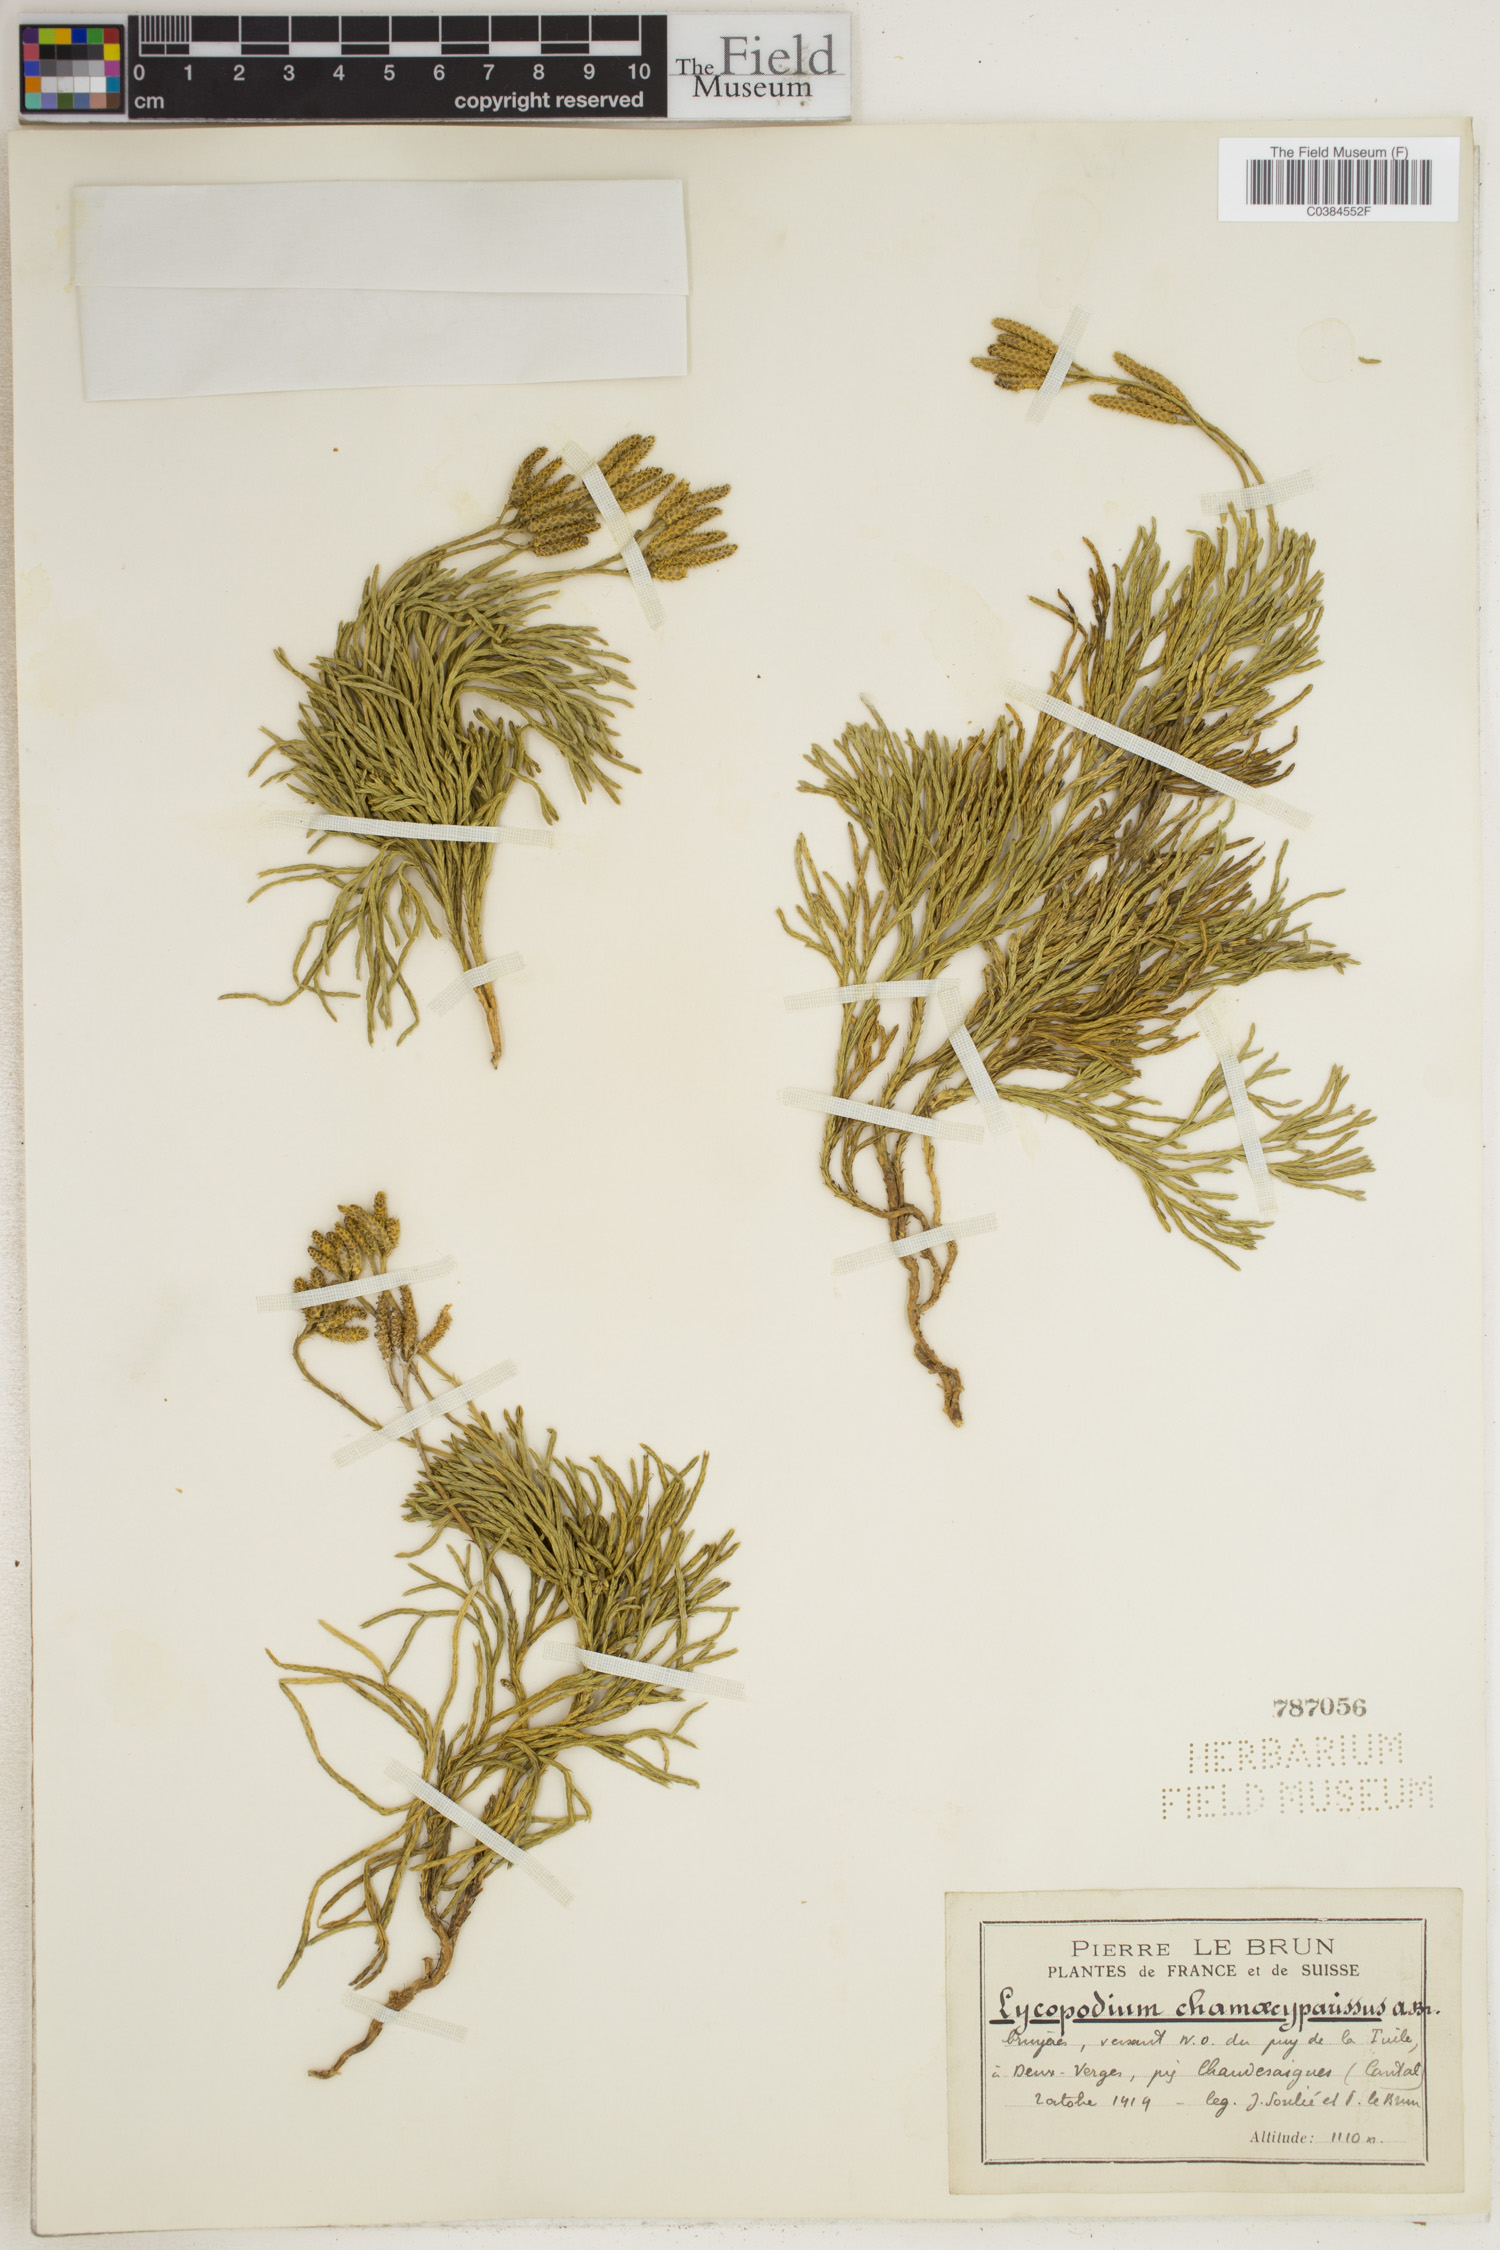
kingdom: Plantae
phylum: Tracheophyta
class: Lycopodiopsida
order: Lycopodiales
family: Lycopodiaceae
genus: Diphasiastrum
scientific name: Diphasiastrum tristachyum
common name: Blue ground-cedar
